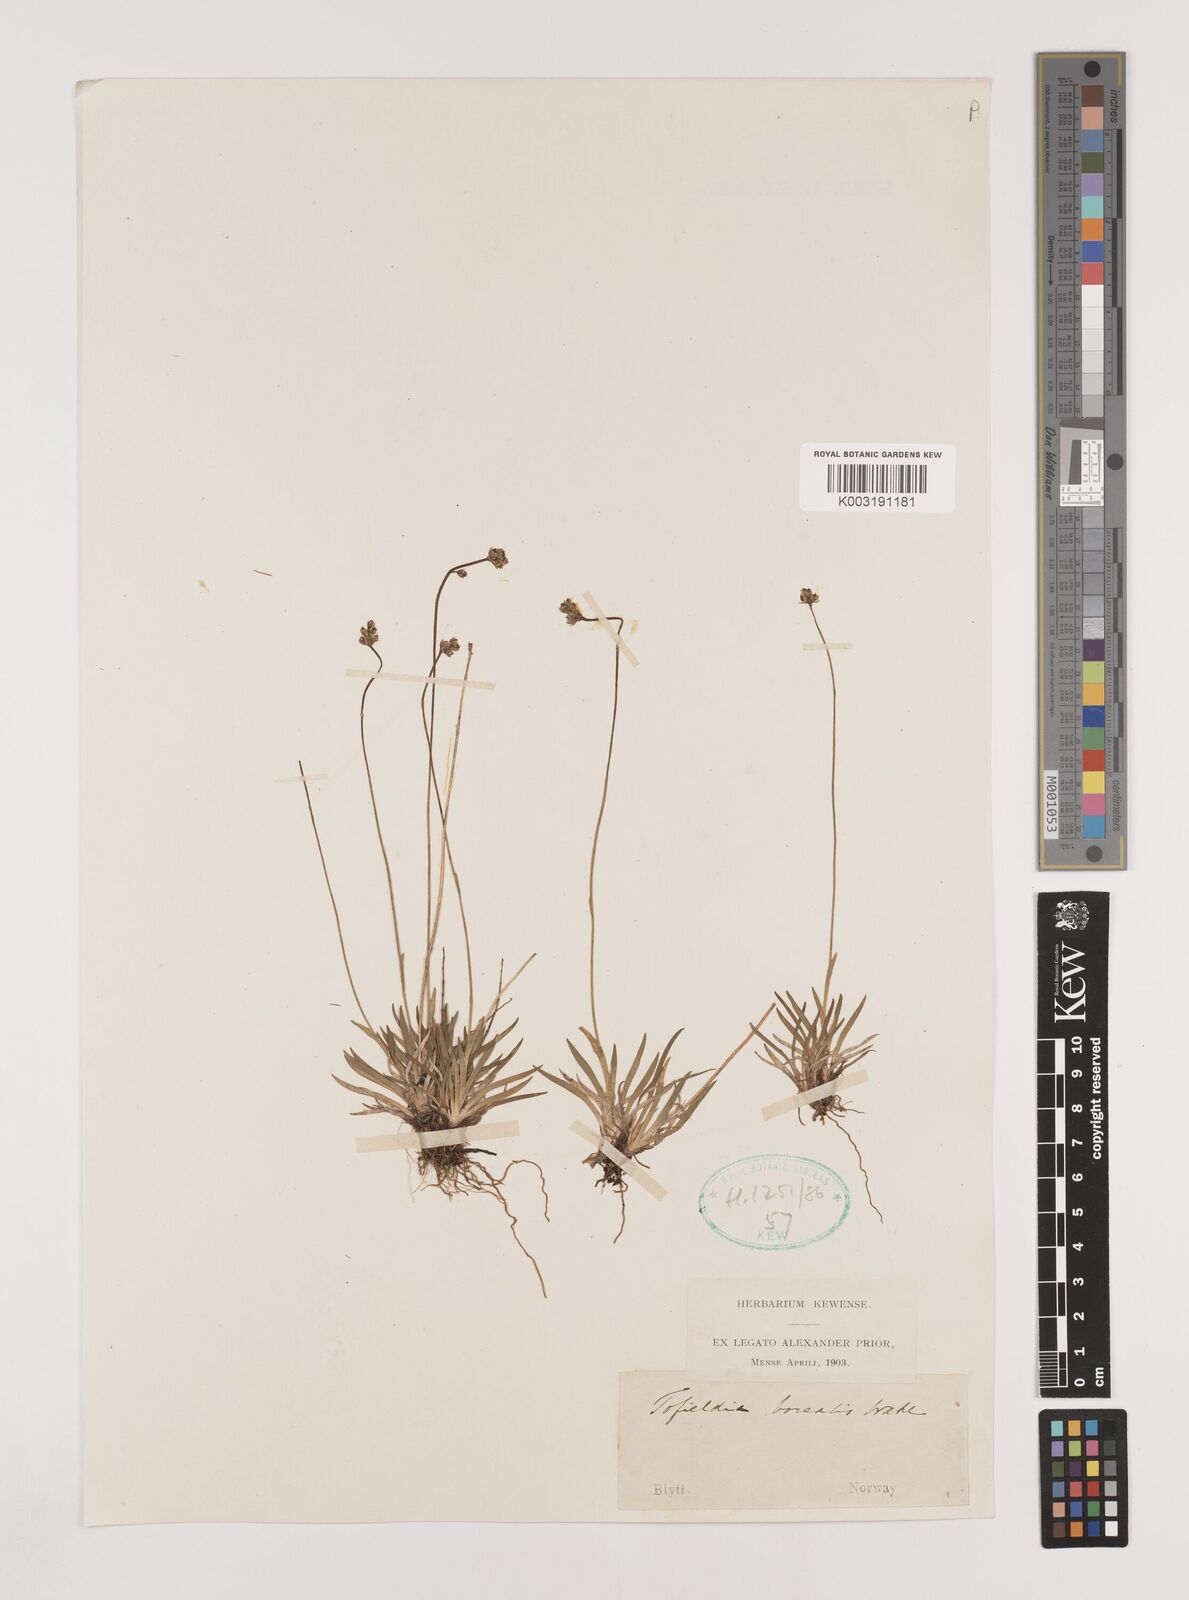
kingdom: Plantae
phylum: Tracheophyta
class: Liliopsida
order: Alismatales
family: Tofieldiaceae
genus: Tofieldia
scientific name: Tofieldia pusilla
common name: Scottish false asphodel
